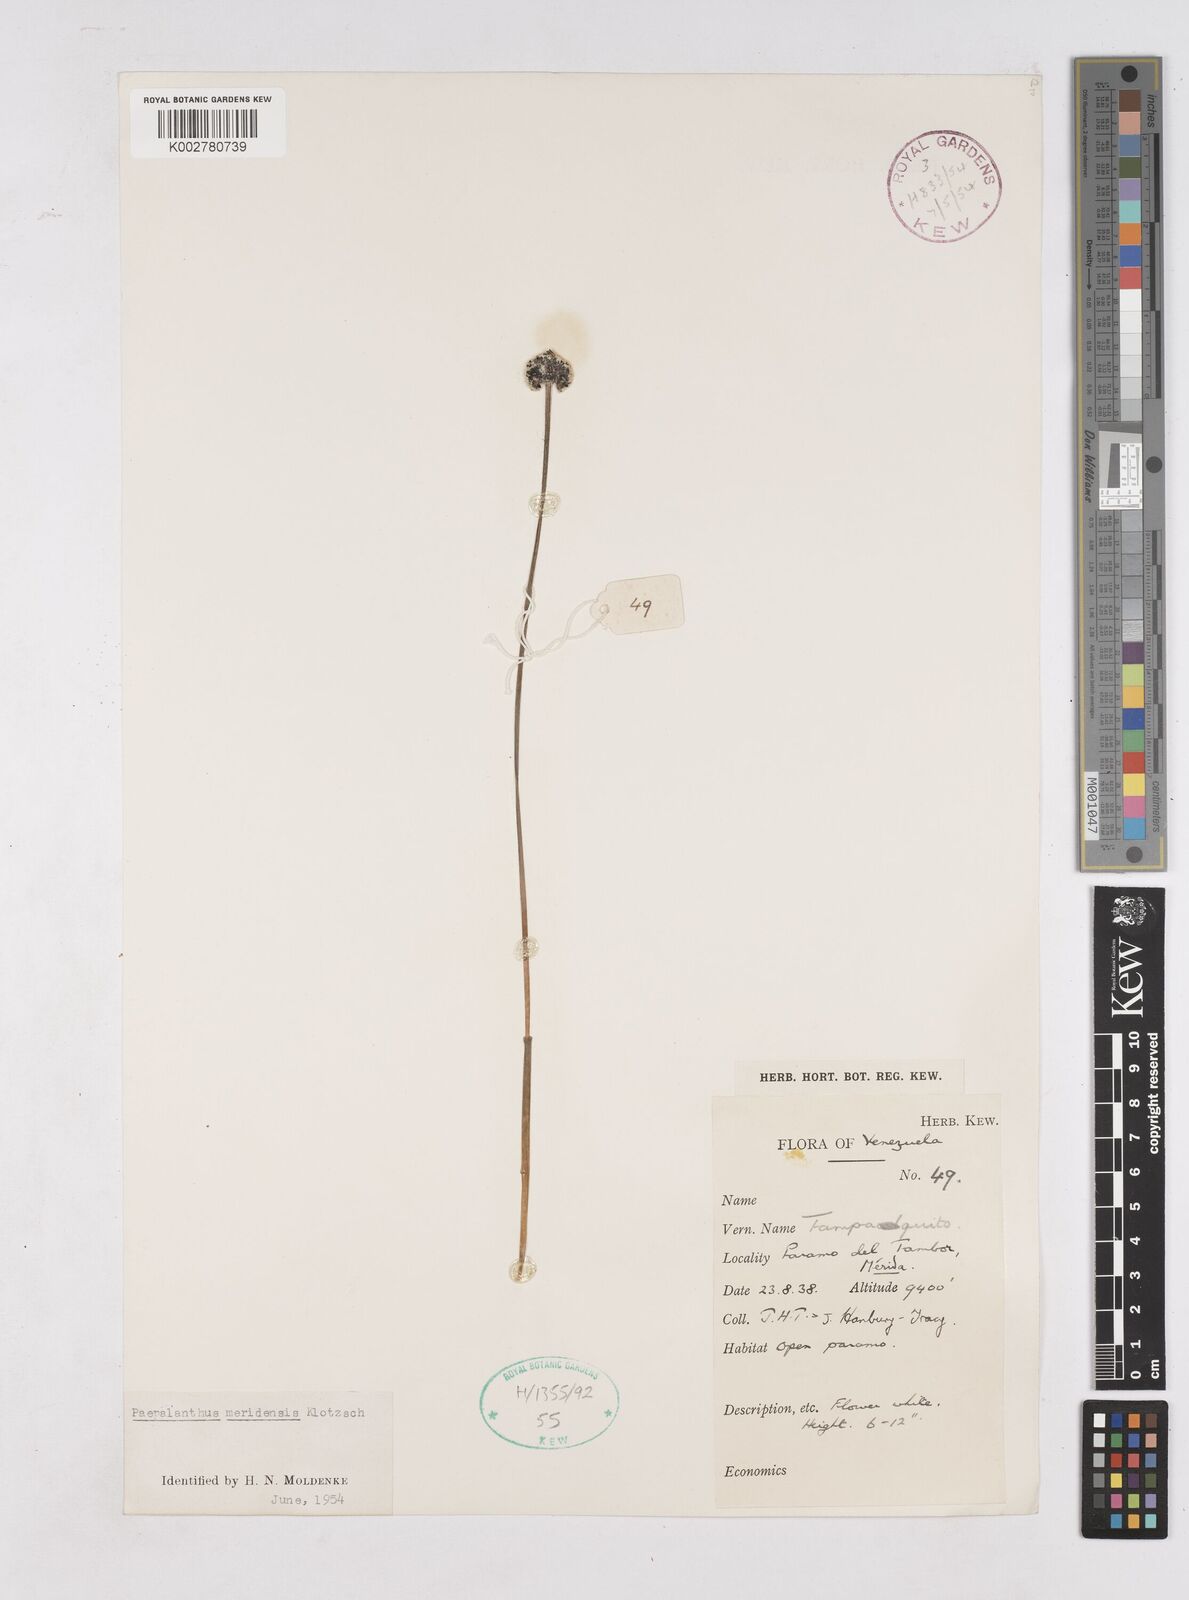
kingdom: Plantae
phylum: Tracheophyta
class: Liliopsida
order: Poales
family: Eriocaulaceae
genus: Paepalanthus
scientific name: Paepalanthus meridensis
